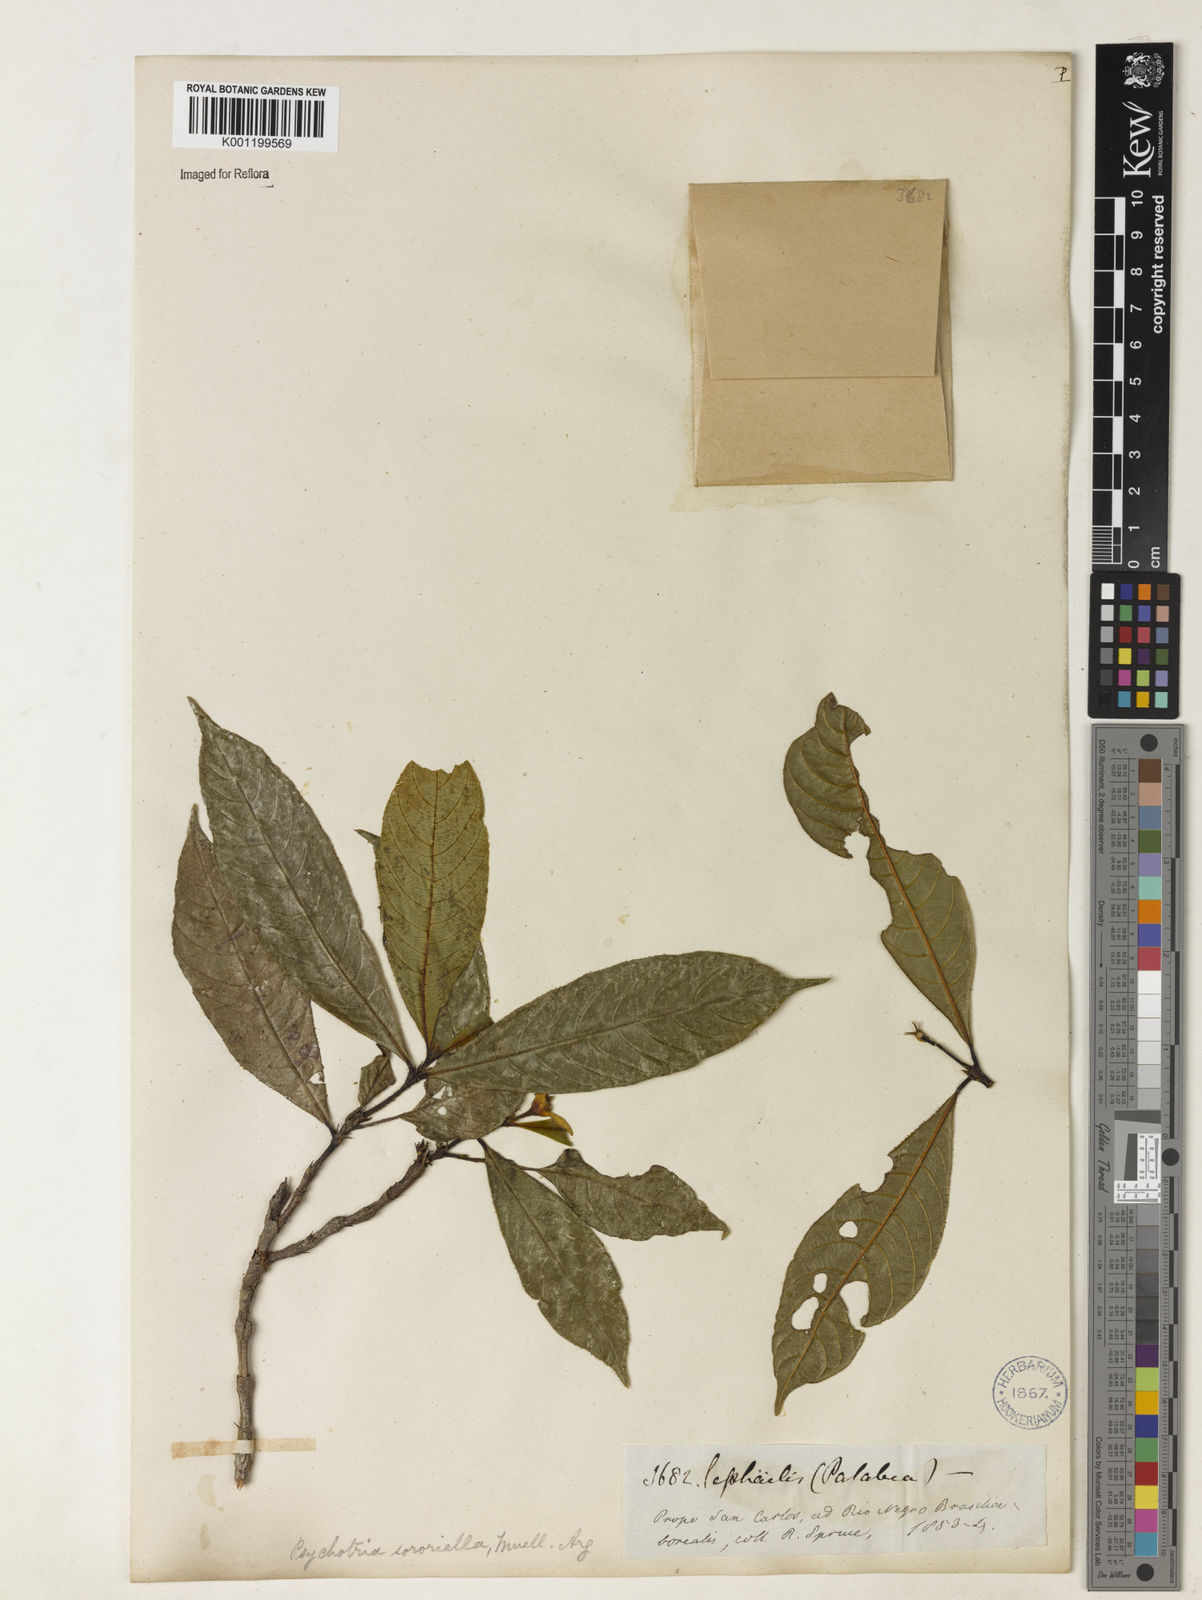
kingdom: Plantae
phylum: Tracheophyta
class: Magnoliopsida
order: Gentianales
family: Rubiaceae
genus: Psychotria
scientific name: Psychotria
